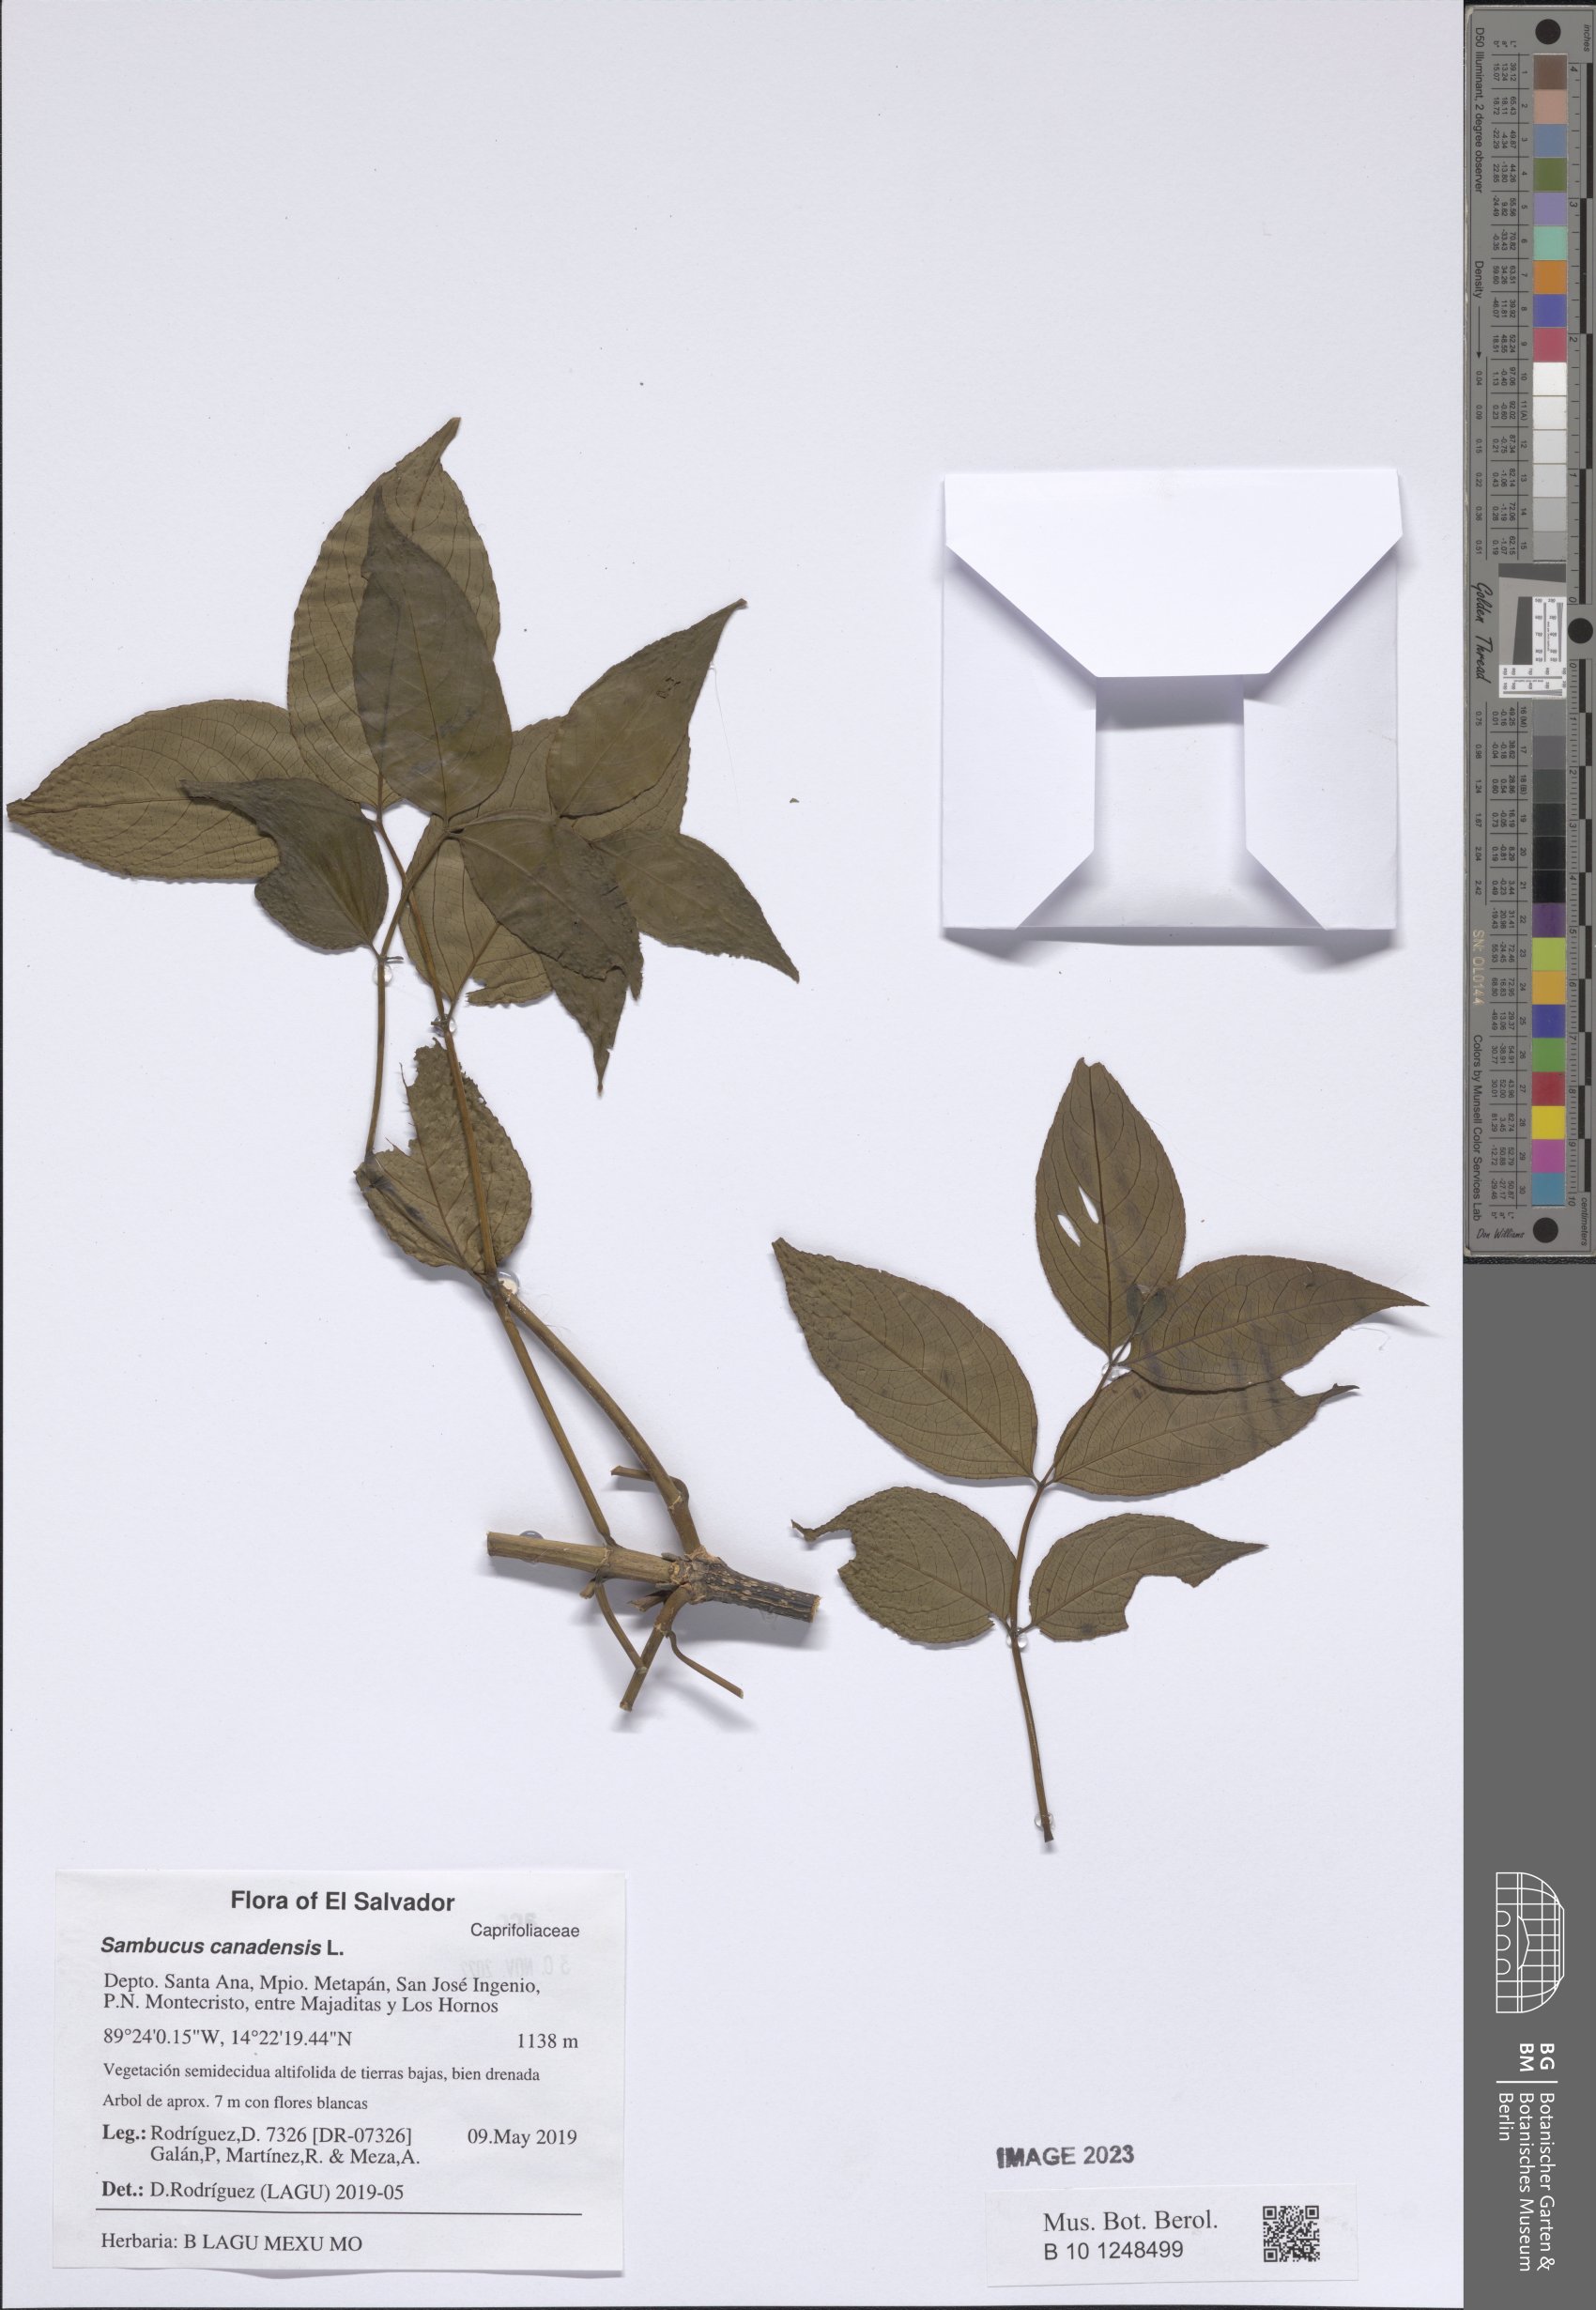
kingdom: Plantae
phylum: Tracheophyta
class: Magnoliopsida
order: Dipsacales
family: Viburnaceae
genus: Sambucus
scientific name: Sambucus canadensis
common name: American elder
